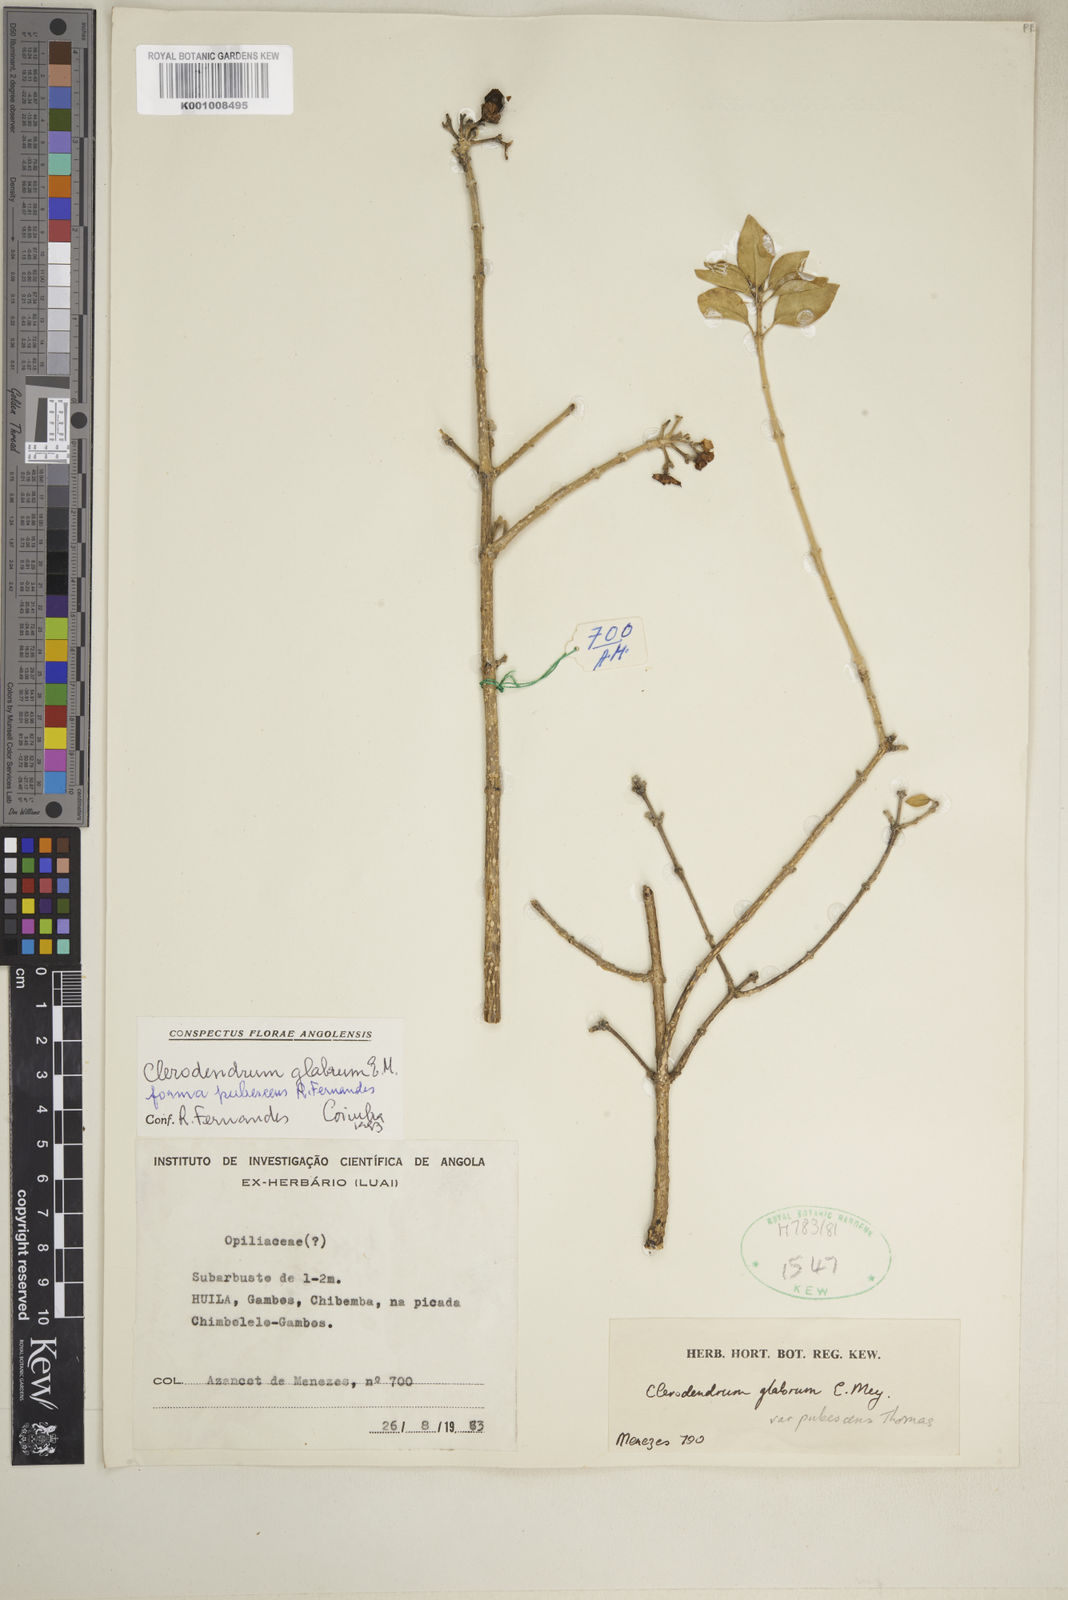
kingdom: Plantae
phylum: Tracheophyta
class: Magnoliopsida
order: Lamiales
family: Lamiaceae
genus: Volkameria
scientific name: Volkameria glabra
